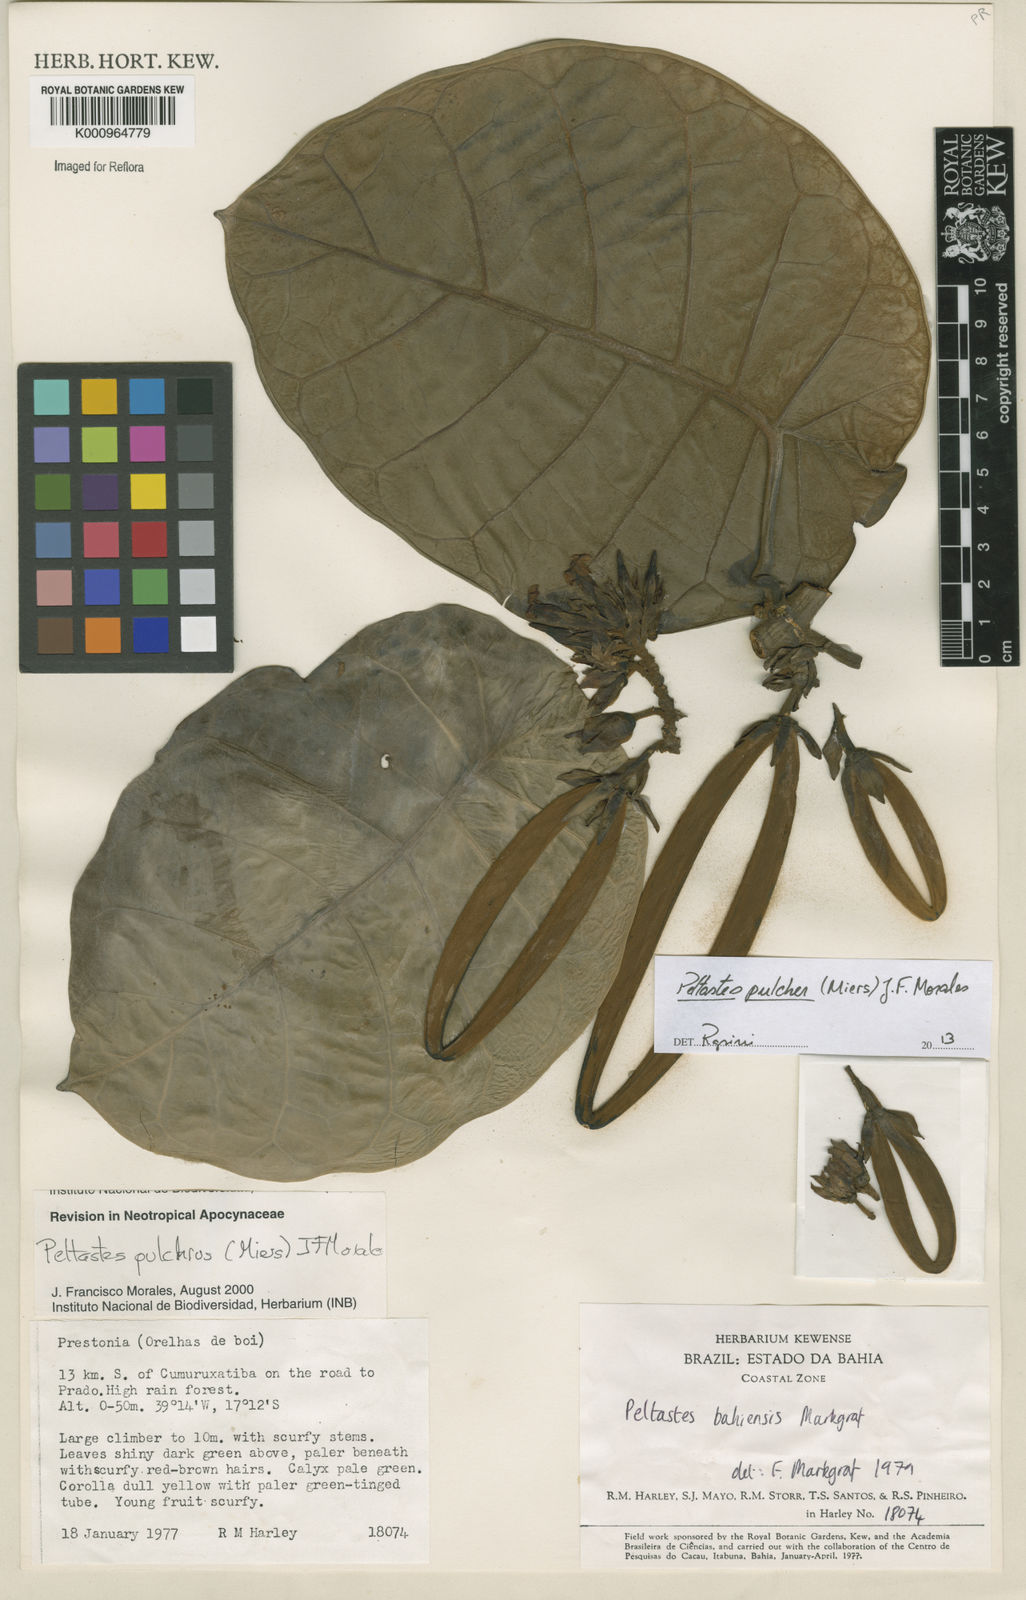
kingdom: Plantae
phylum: Tracheophyta
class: Magnoliopsida
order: Gentianales
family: Apocynaceae
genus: Macropharynx
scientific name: Macropharynx pulchra
